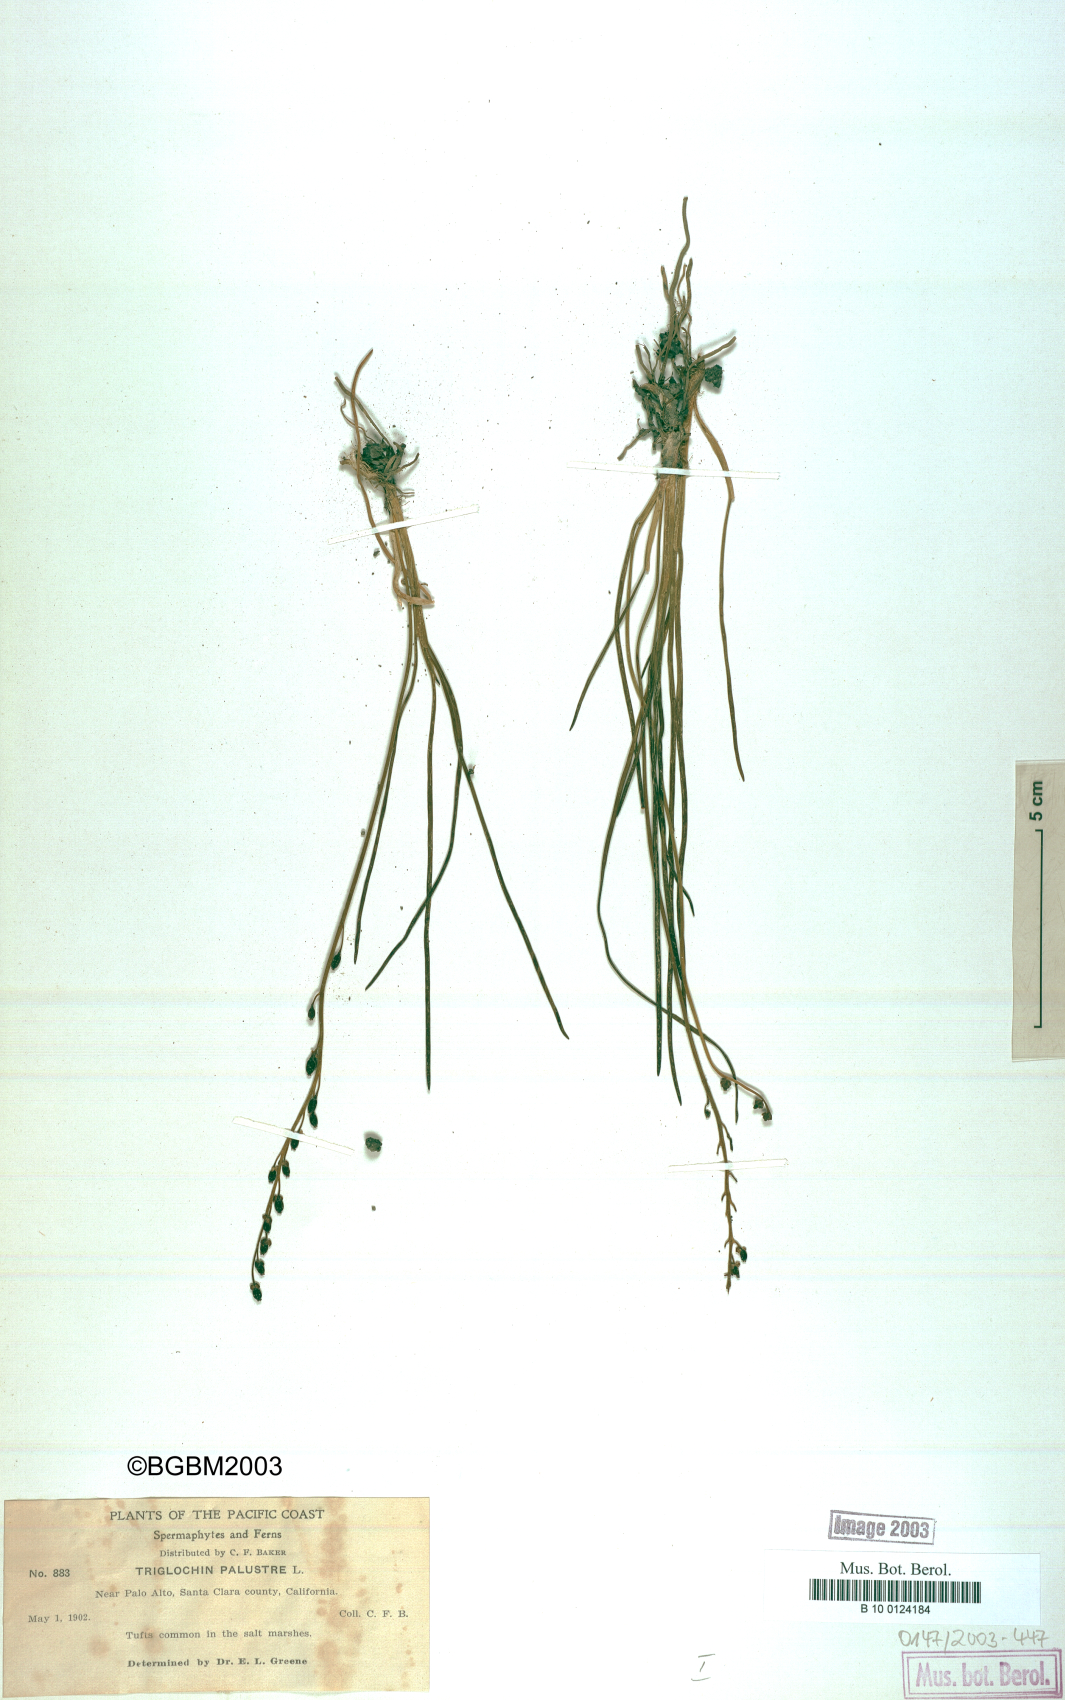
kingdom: Plantae
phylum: Tracheophyta
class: Liliopsida
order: Alismatales
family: Juncaginaceae
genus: Triglochin
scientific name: Triglochin maritima
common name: Sea arrowgrass
